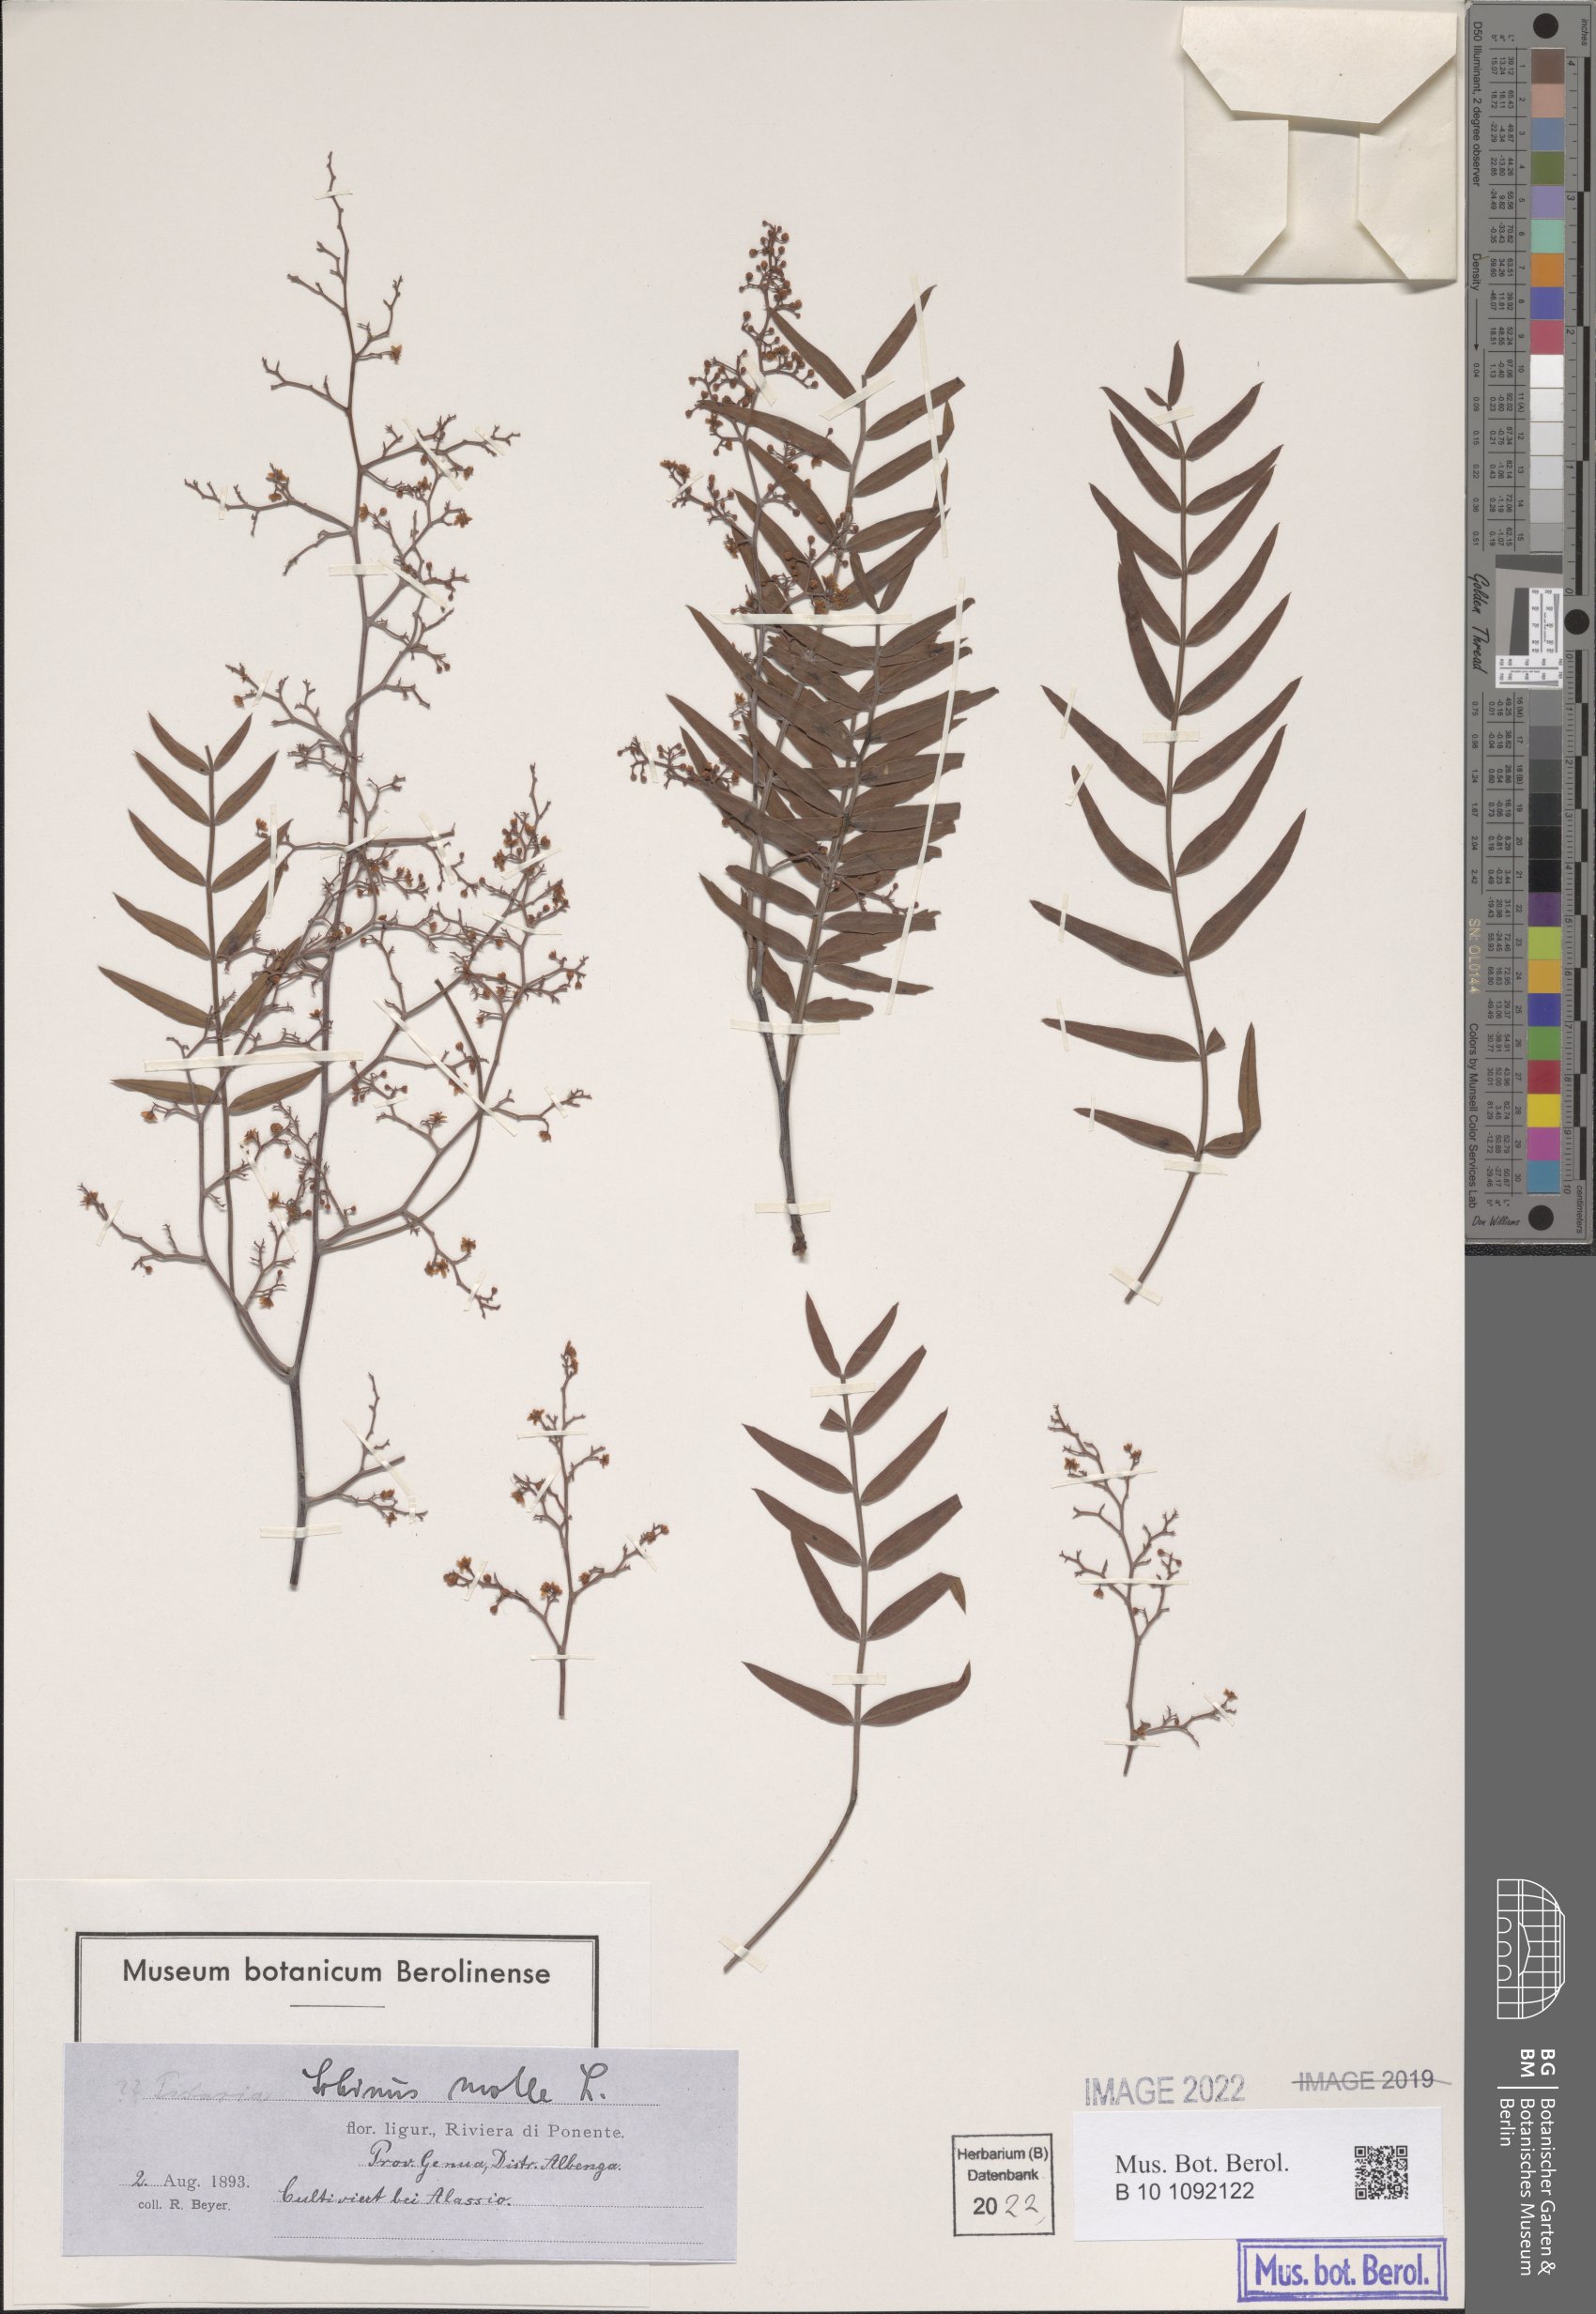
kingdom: Plantae
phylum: Tracheophyta
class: Magnoliopsida
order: Sapindales
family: Anacardiaceae
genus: Schinus
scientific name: Schinus molle
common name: Peruvian peppertree
